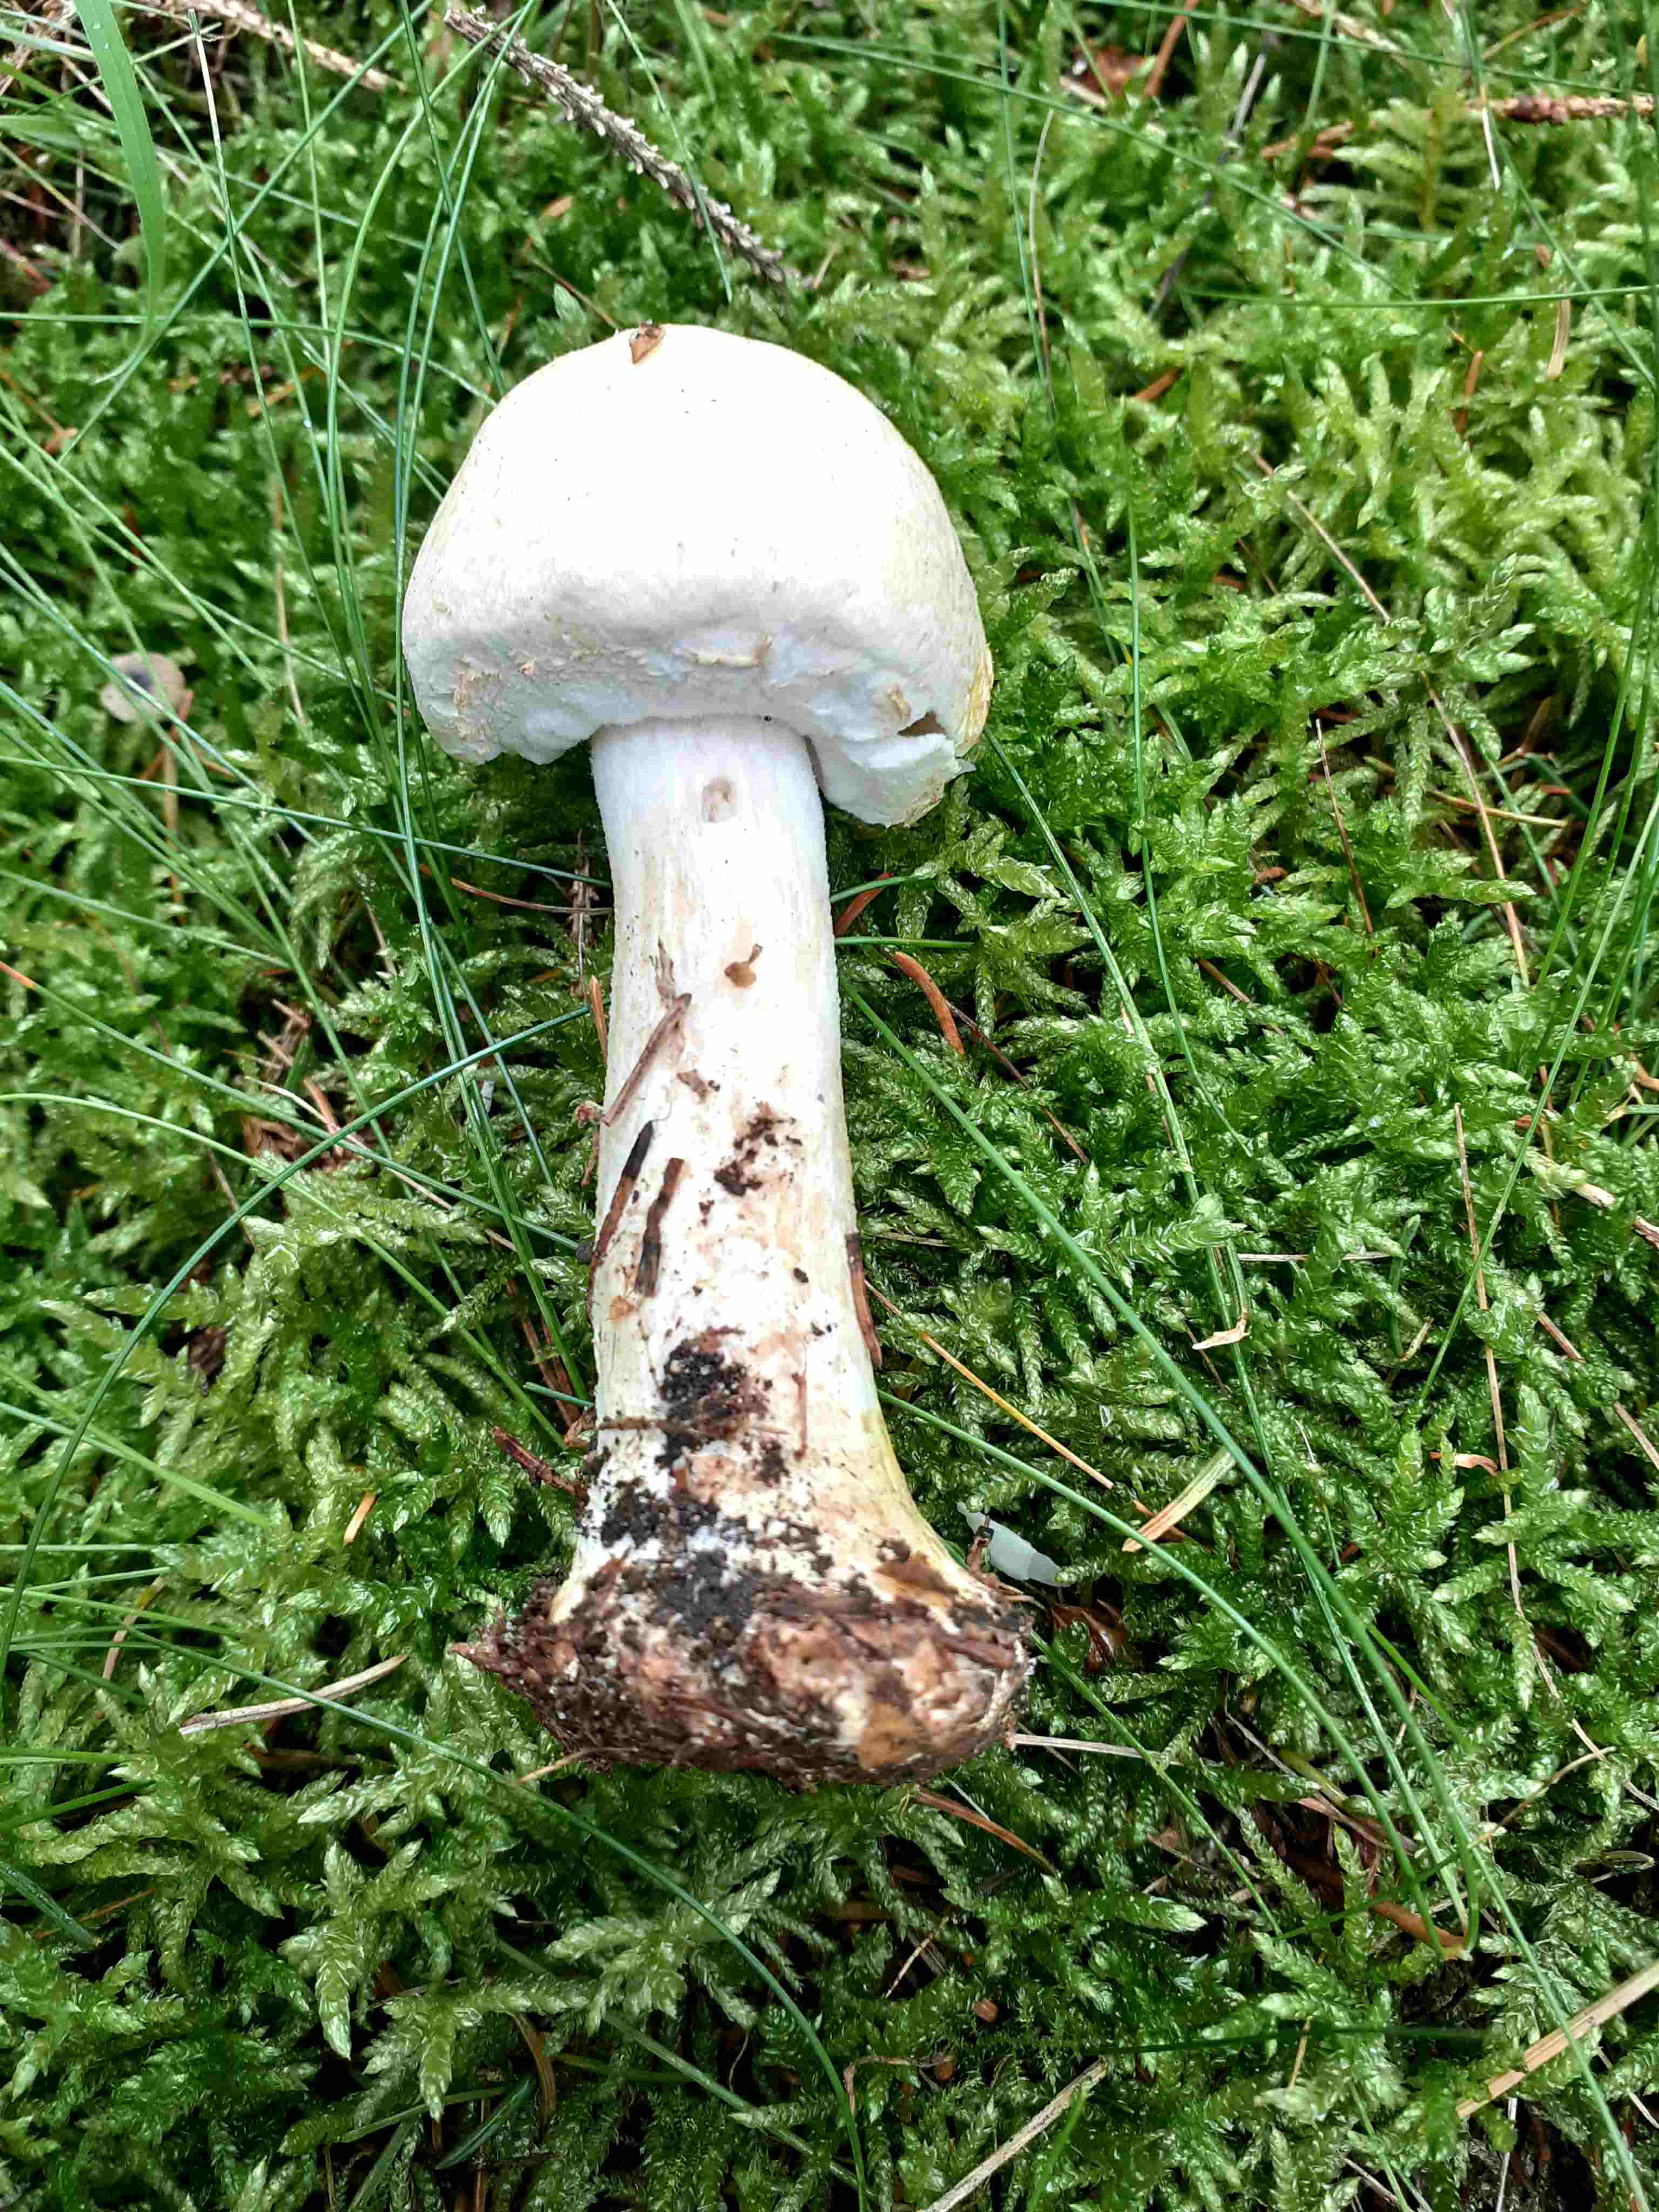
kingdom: Fungi
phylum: Basidiomycota
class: Agaricomycetes
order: Agaricales
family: Agaricaceae
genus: Agaricus
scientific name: Agaricus sylvicola
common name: skiveknoldet champignon
